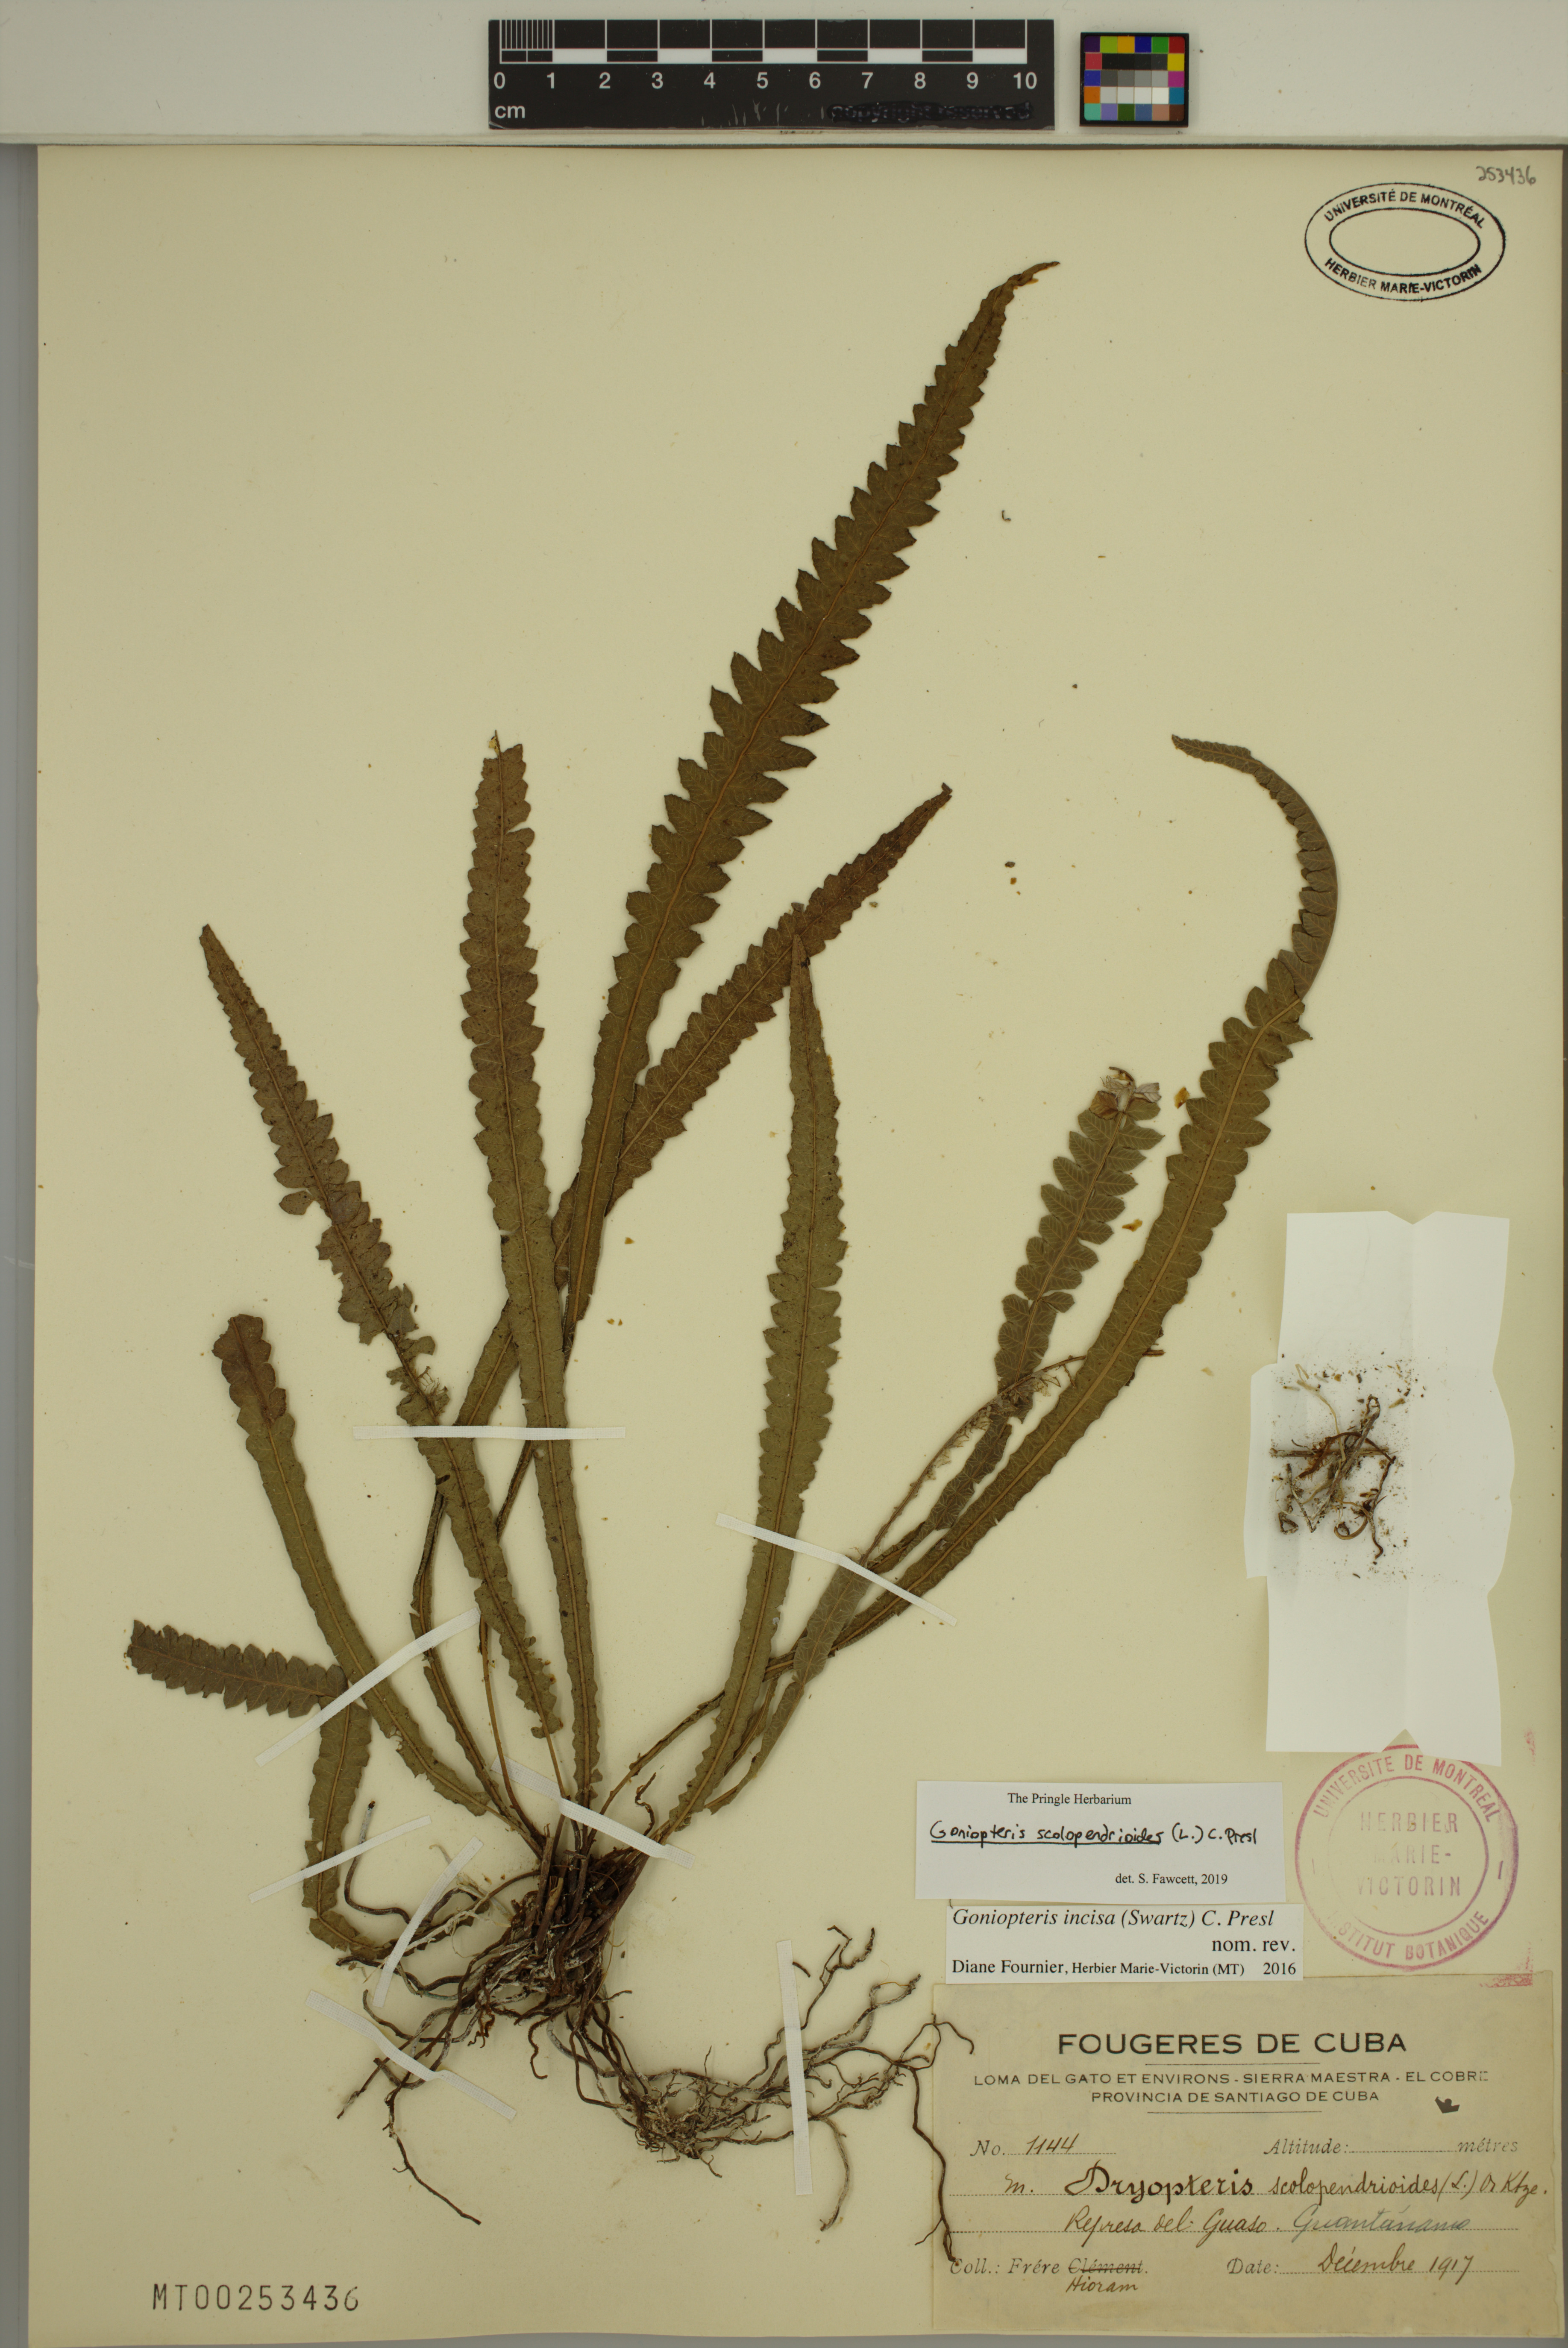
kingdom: Plantae
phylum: Tracheophyta
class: Polypodiopsida
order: Polypodiales
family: Thelypteridaceae
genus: Goniopteris
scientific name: Goniopteris scolopendrioides
